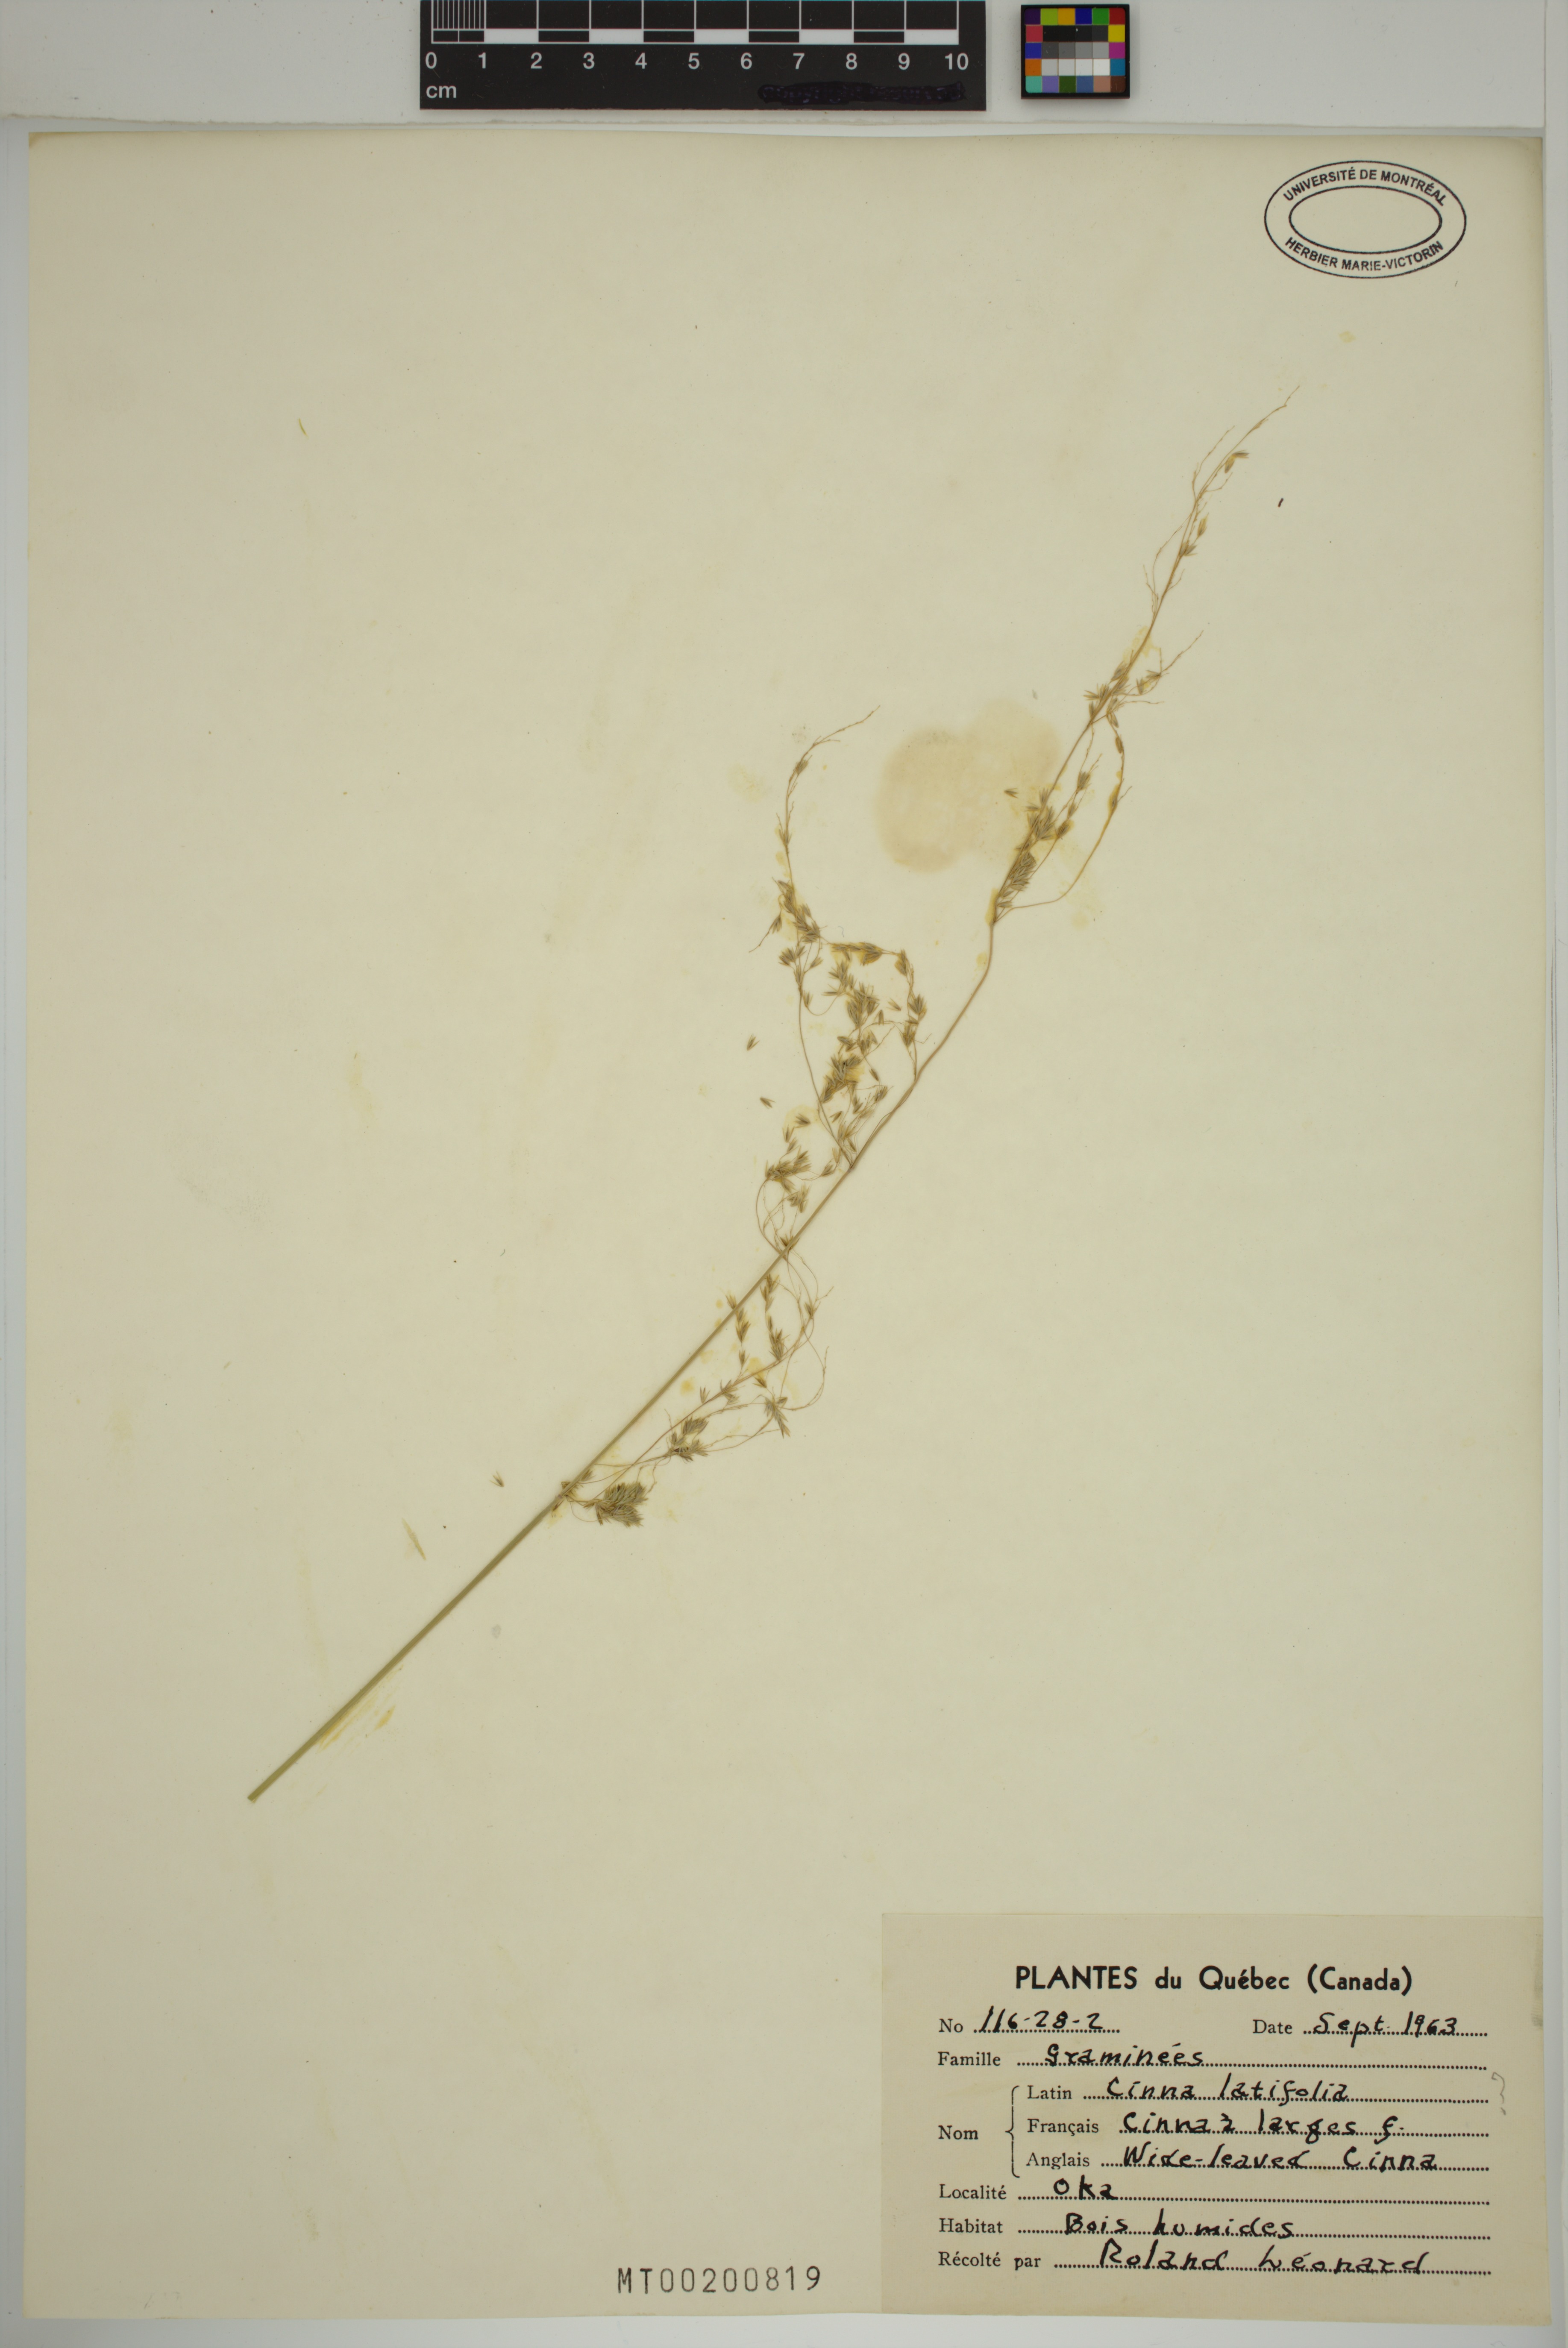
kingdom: Plantae
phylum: Tracheophyta
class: Liliopsida
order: Poales
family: Poaceae
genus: Cinna
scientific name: Cinna latifolia
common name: Drooping woodreed
